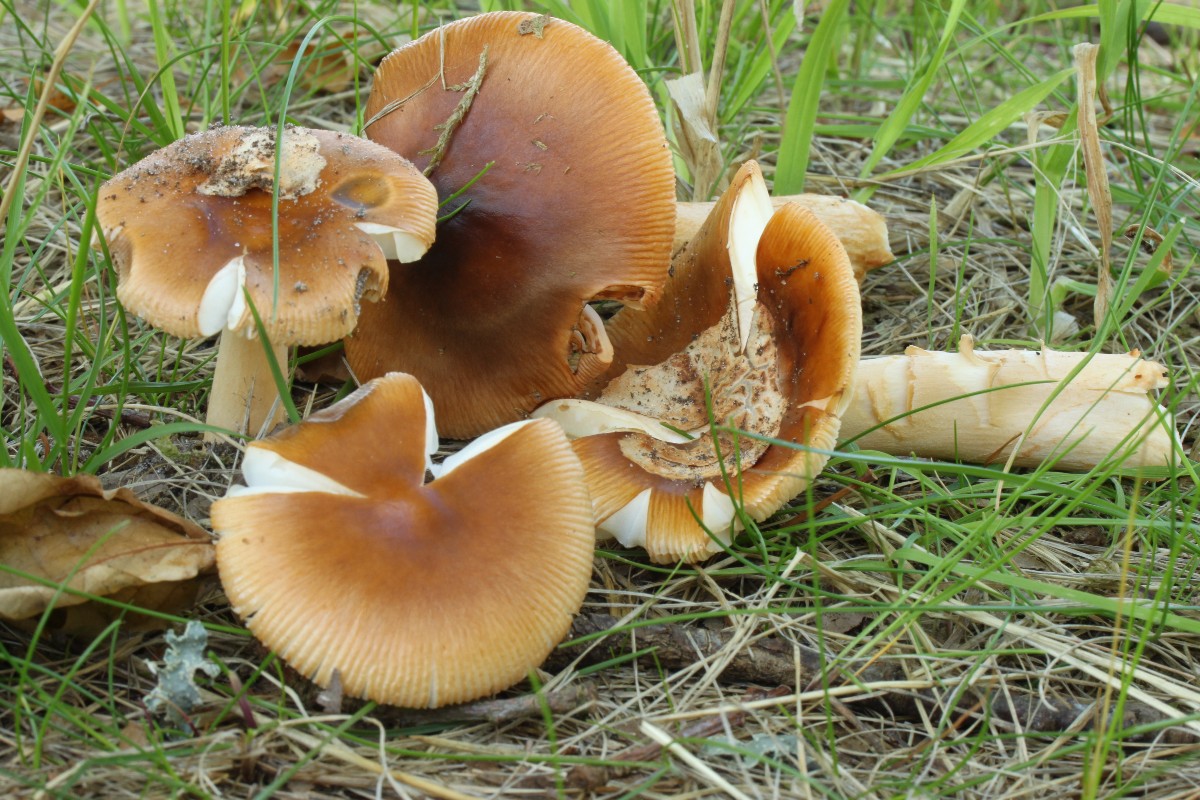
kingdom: Fungi
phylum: Basidiomycota
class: Agaricomycetes
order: Agaricales
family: Amanitaceae
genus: Amanita
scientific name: Amanita fulva
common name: brun kam-fluesvamp
